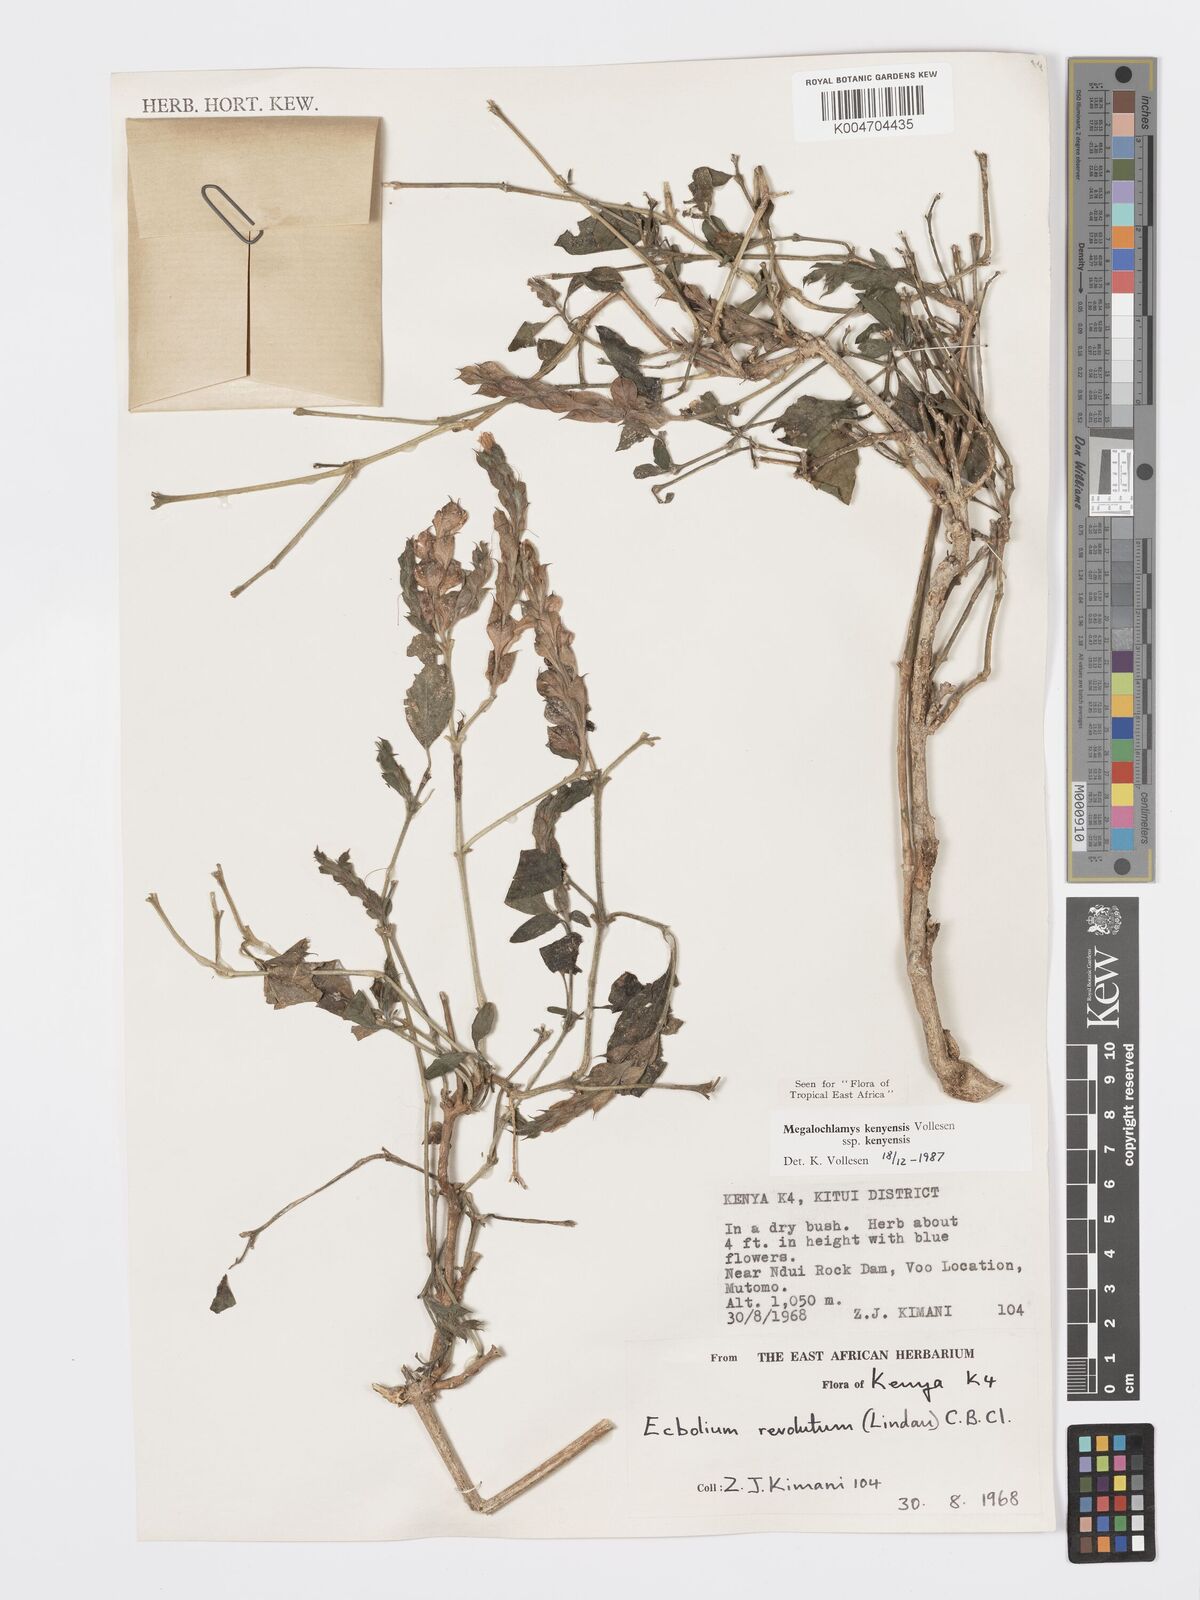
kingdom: Plantae
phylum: Tracheophyta
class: Magnoliopsida
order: Lamiales
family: Acanthaceae
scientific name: Acanthaceae
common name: Acanthaceae
